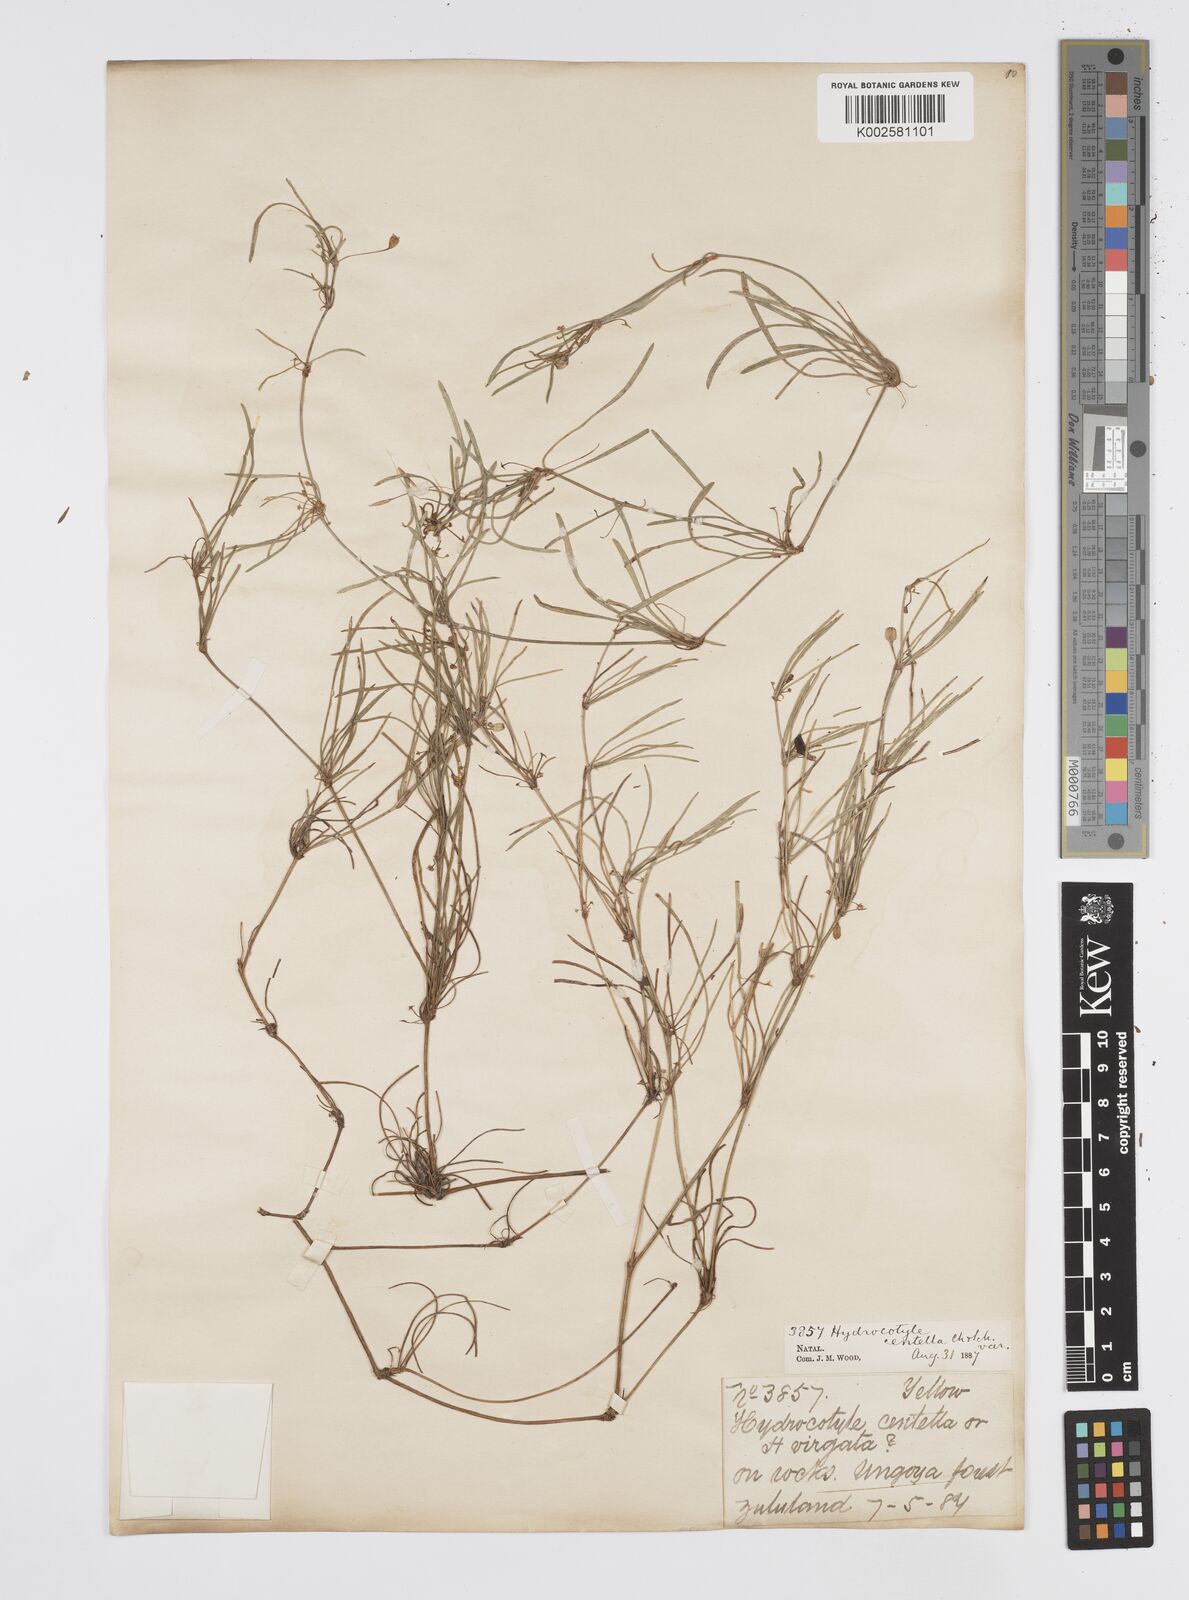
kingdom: Plantae
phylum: Tracheophyta
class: Magnoliopsida
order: Apiales
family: Apiaceae
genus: Centella
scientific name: Centella affinis
